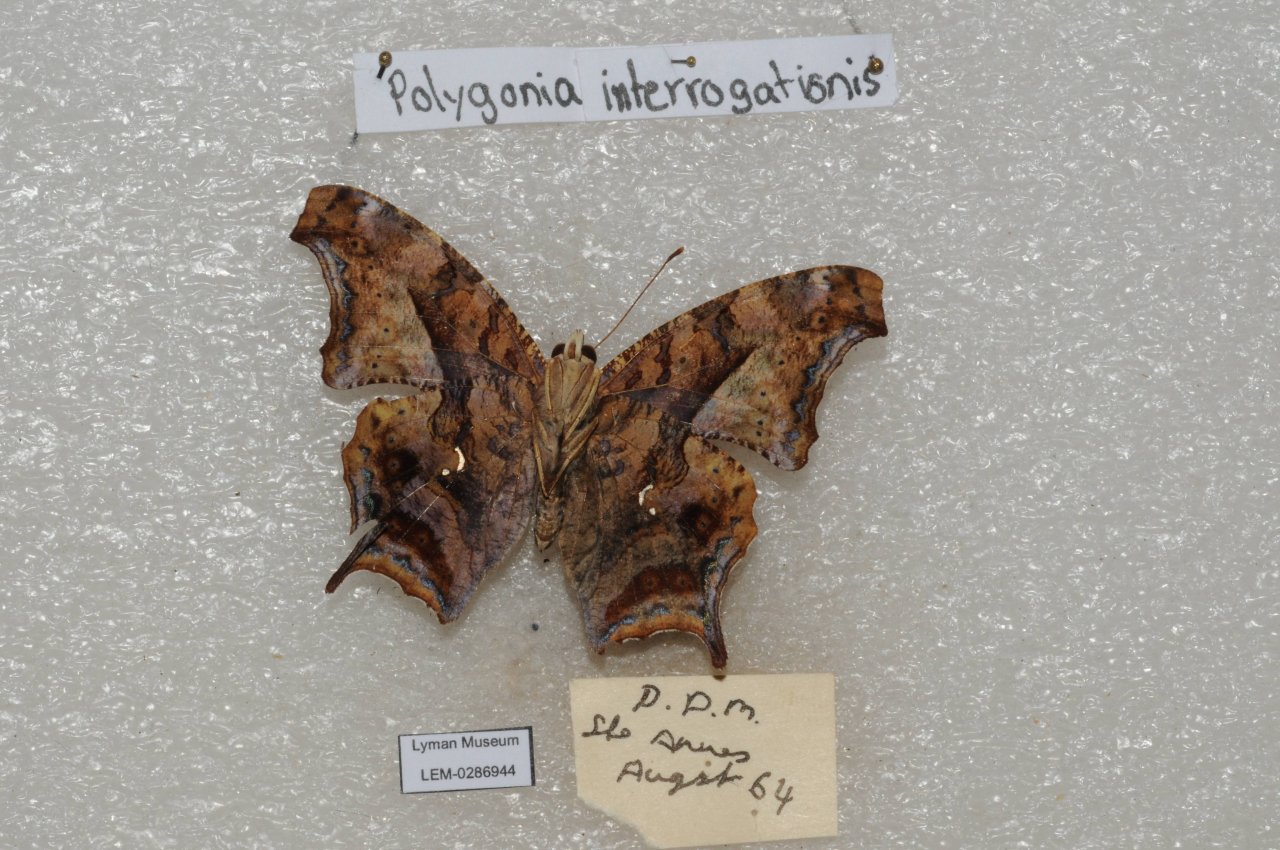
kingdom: Animalia
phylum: Arthropoda
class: Insecta
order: Lepidoptera
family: Nymphalidae
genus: Polygonia
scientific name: Polygonia interrogationis
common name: Question Mark
